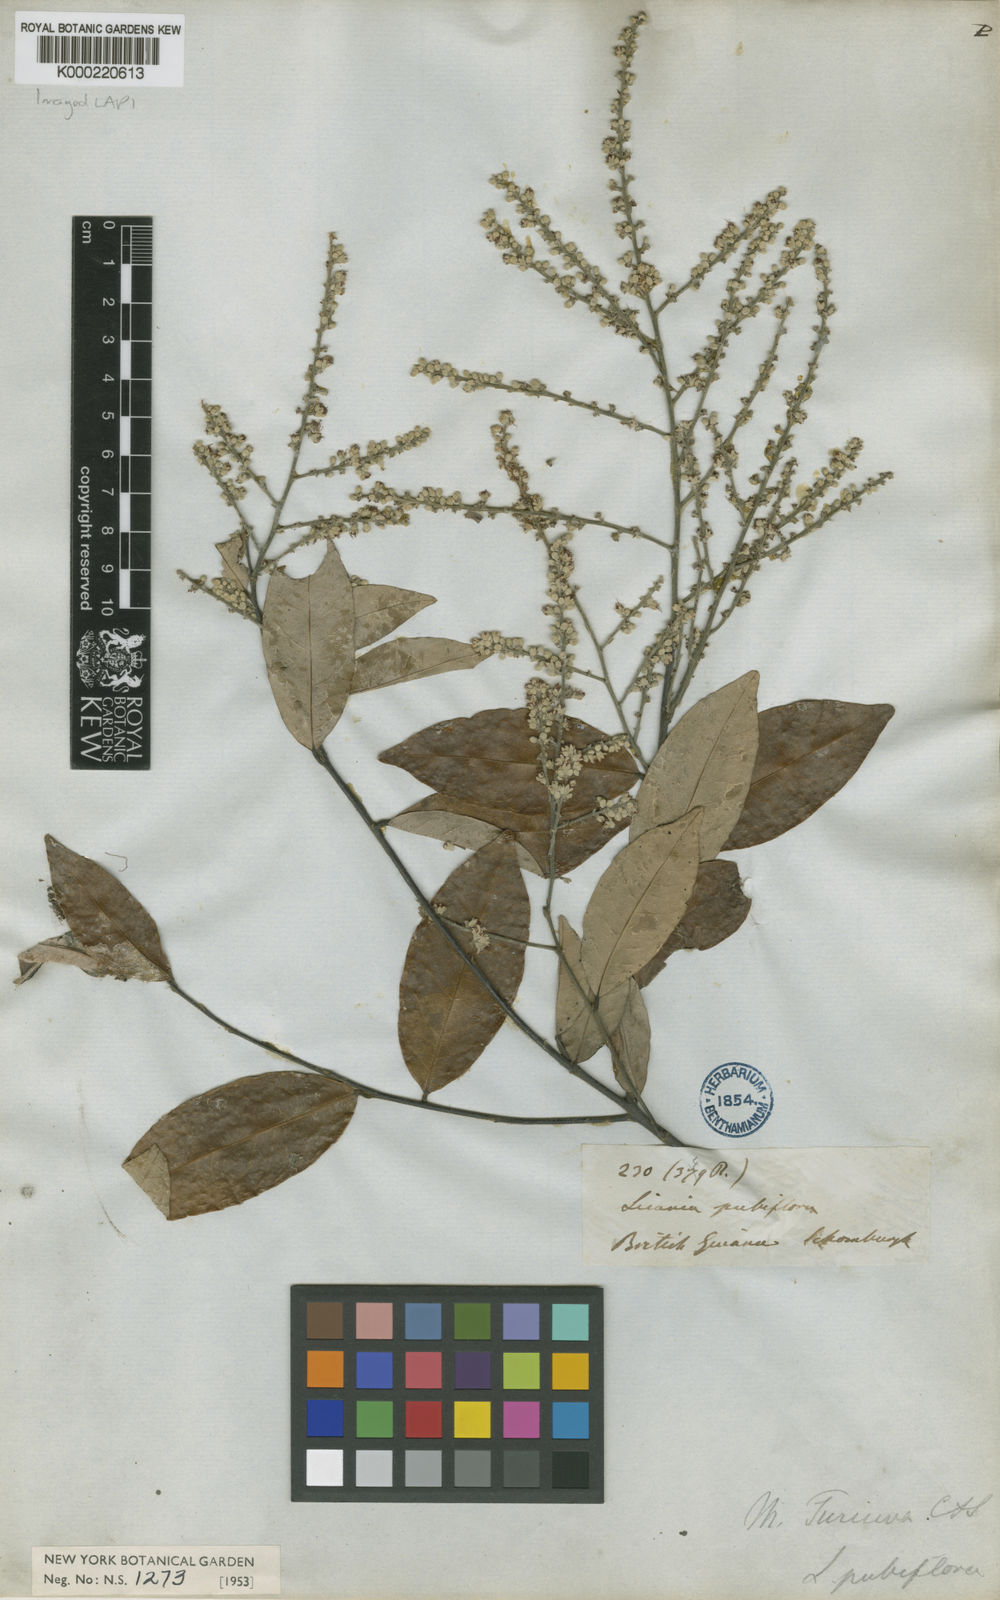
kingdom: Plantae
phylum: Tracheophyta
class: Magnoliopsida
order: Malpighiales
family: Chrysobalanaceae
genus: Leptobalanus
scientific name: Leptobalanus apetalus
